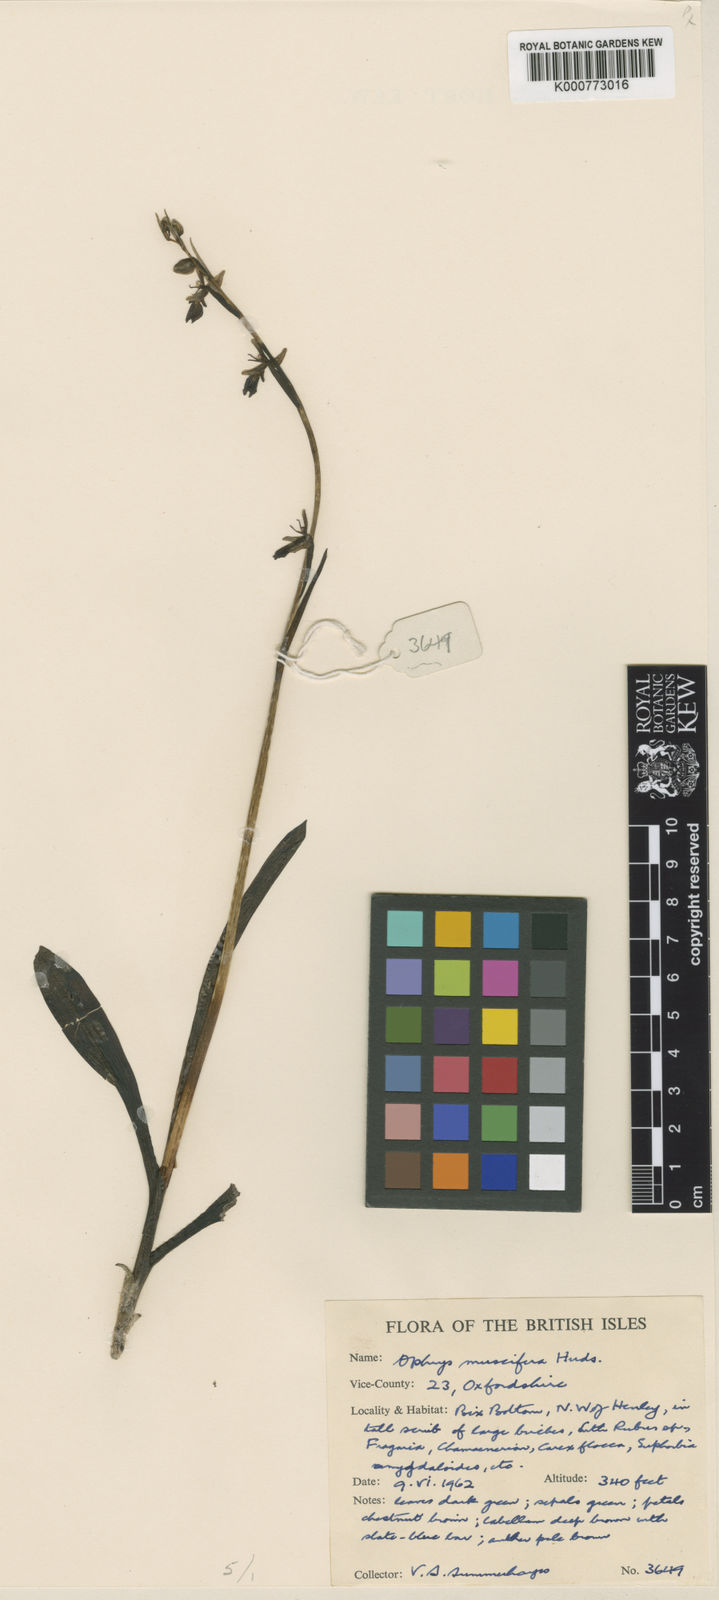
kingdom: Plantae
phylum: Tracheophyta
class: Liliopsida
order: Asparagales
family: Orchidaceae
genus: Ophrys
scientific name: Ophrys insectifera
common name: Fly orchid
